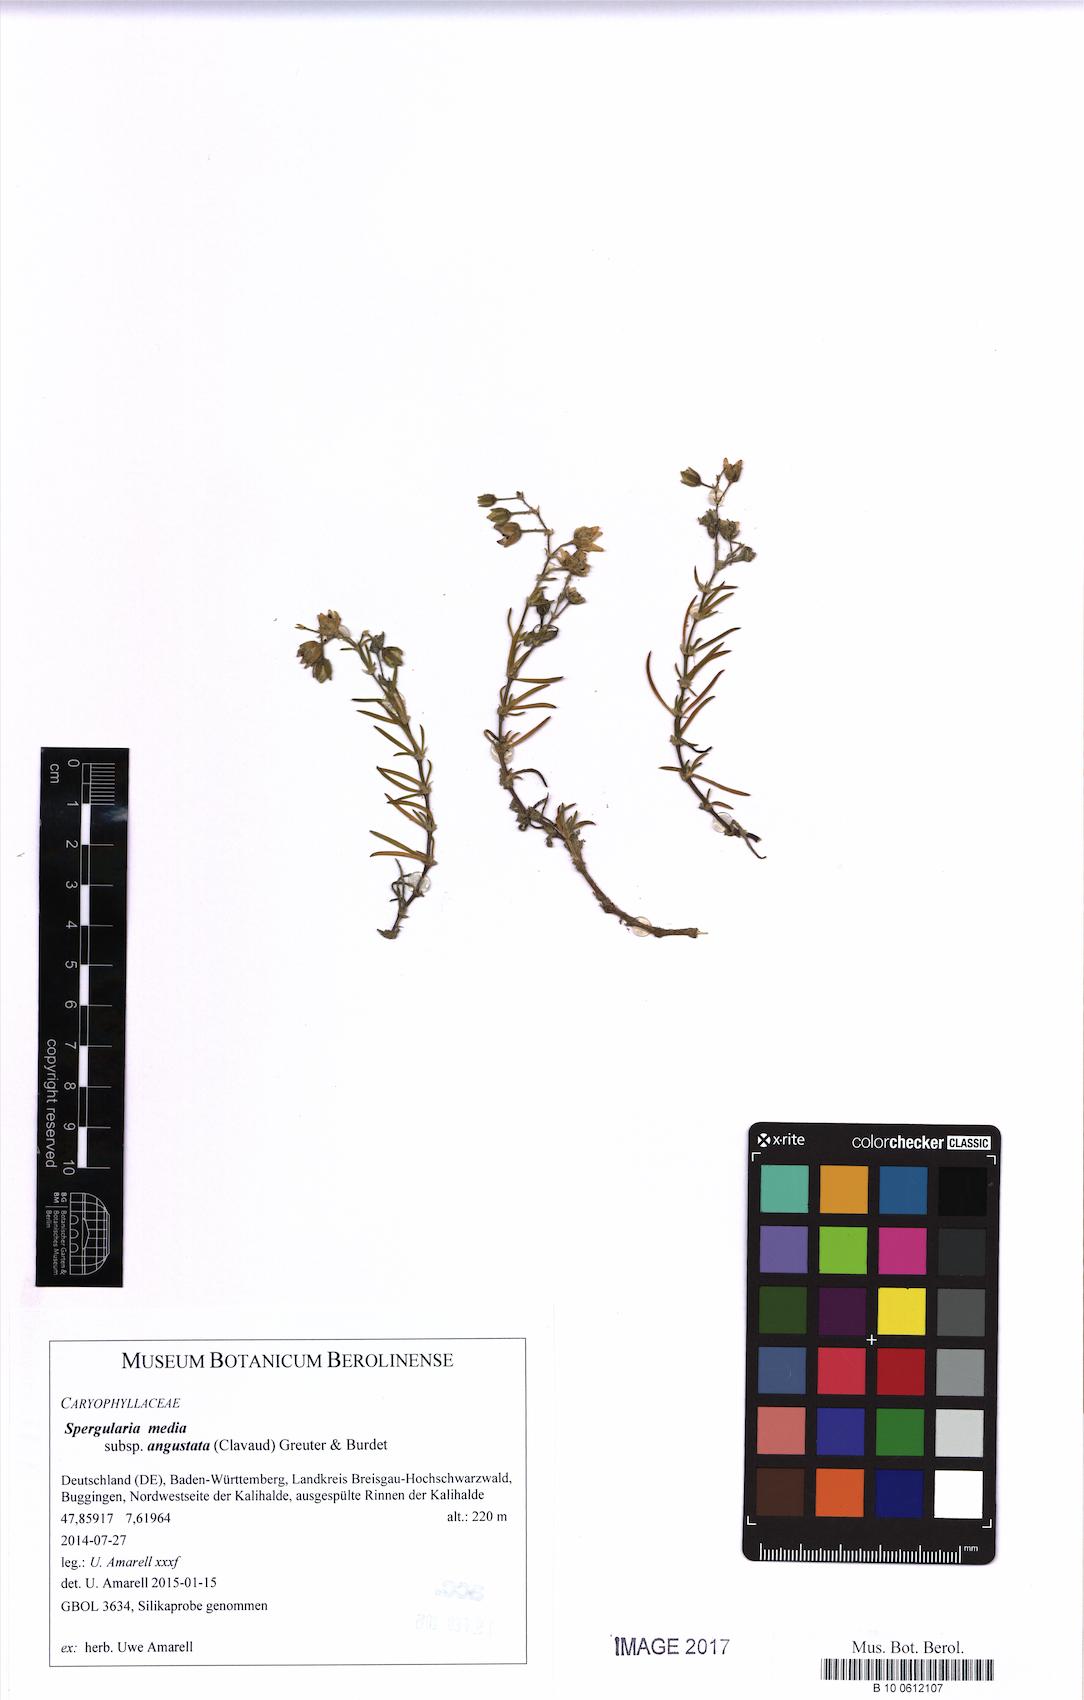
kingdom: Plantae
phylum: Tracheophyta
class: Magnoliopsida
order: Caryophyllales
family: Caryophyllaceae
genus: Spergularia
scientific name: Spergularia media
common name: Greater sea-spurrey
